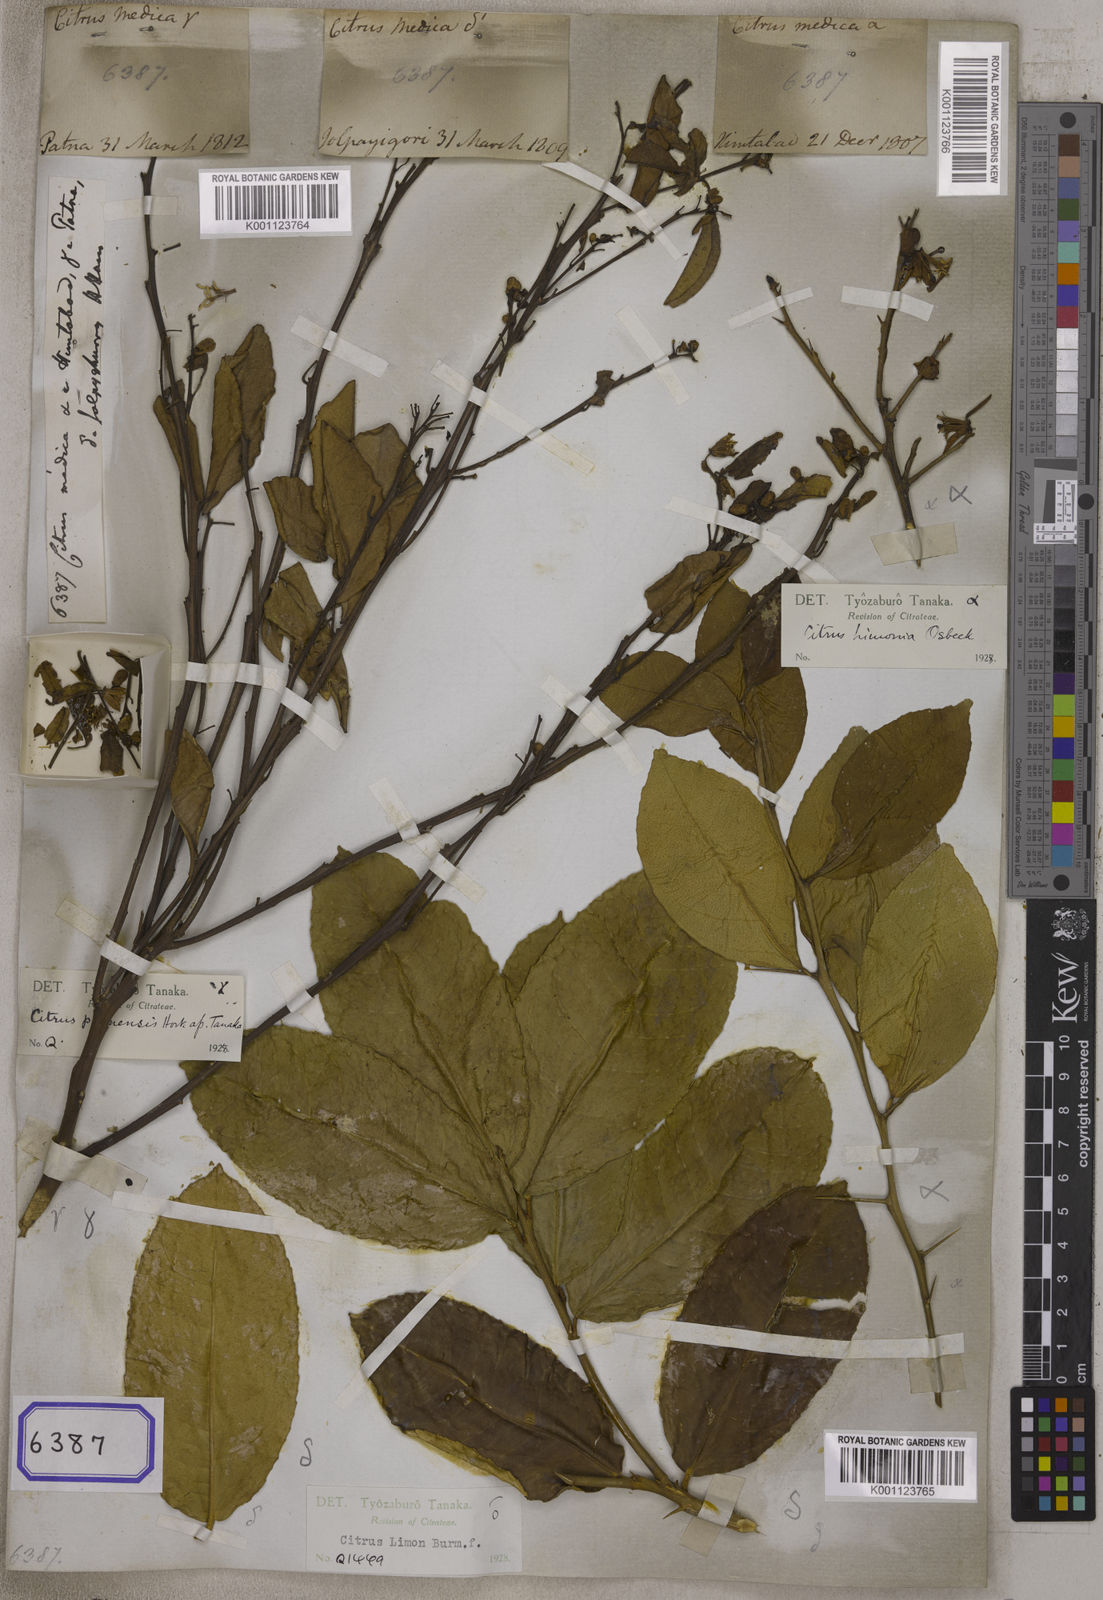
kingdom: Plantae
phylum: Tracheophyta
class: Magnoliopsida
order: Sapindales
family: Rutaceae
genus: Citrus
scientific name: Citrus medica
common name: Citron
